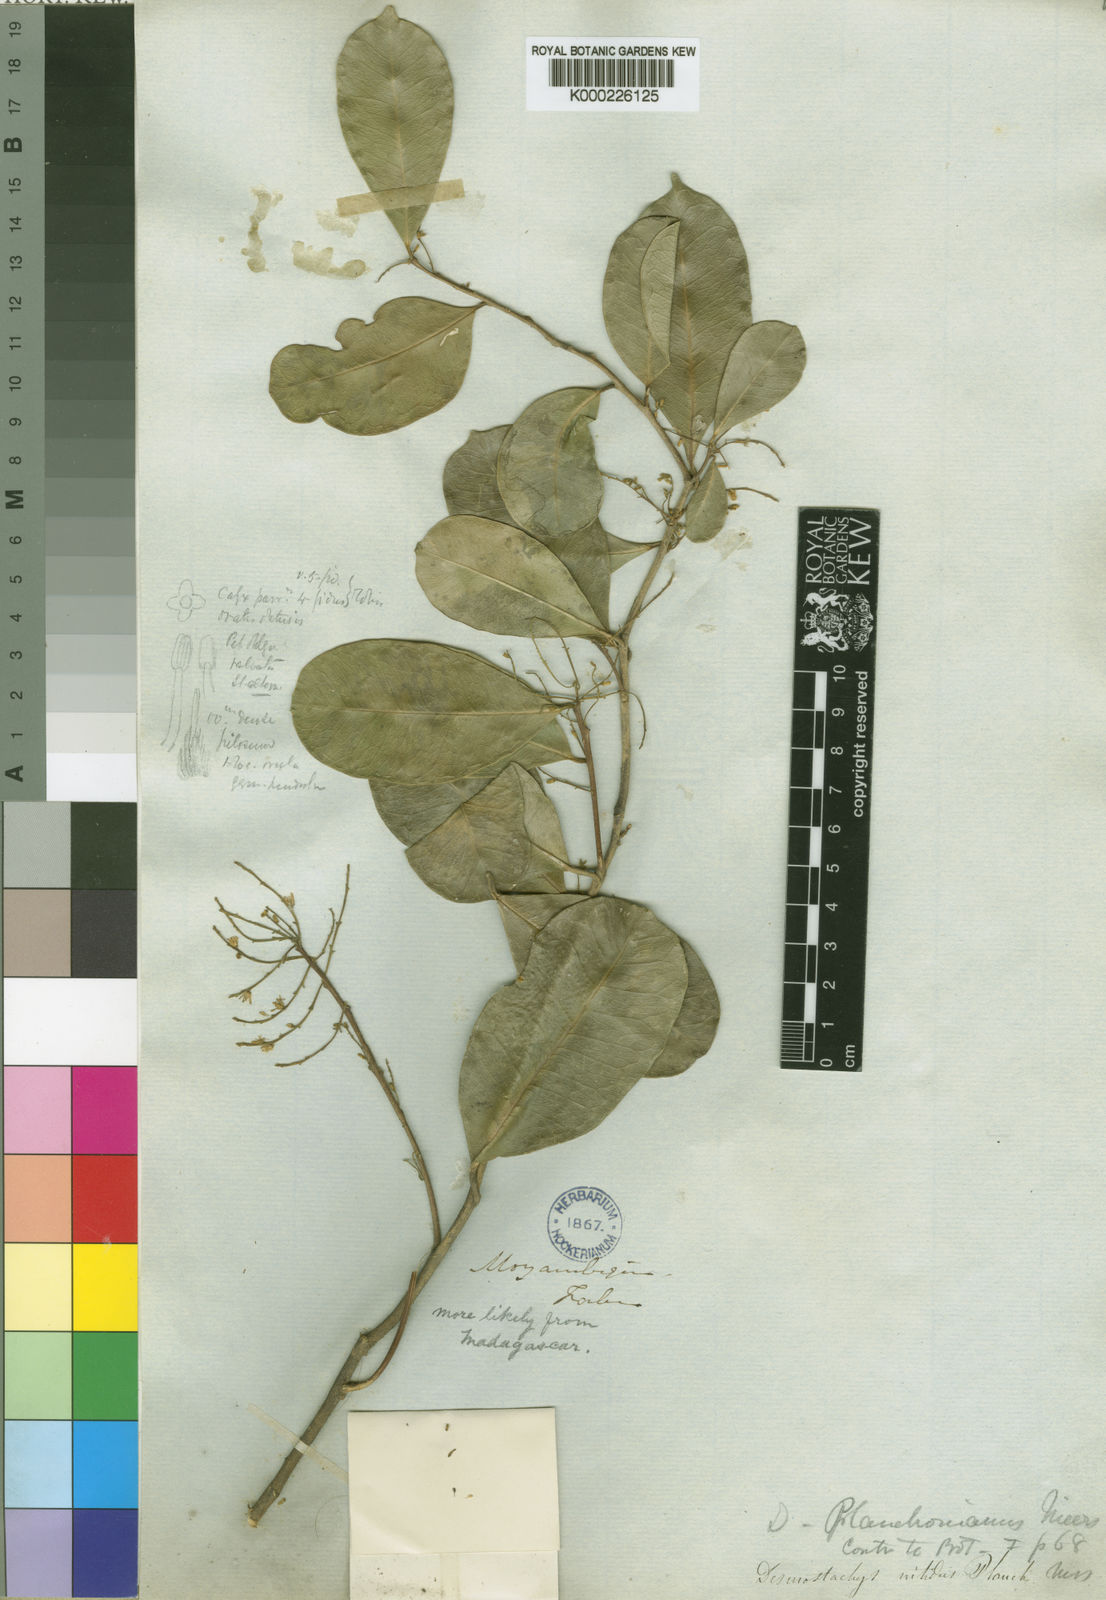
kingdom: Plantae
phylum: Tracheophyta
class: Magnoliopsida
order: Icacinales
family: Icacinaceae
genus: Desmostachys
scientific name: Desmostachys planchonianus
